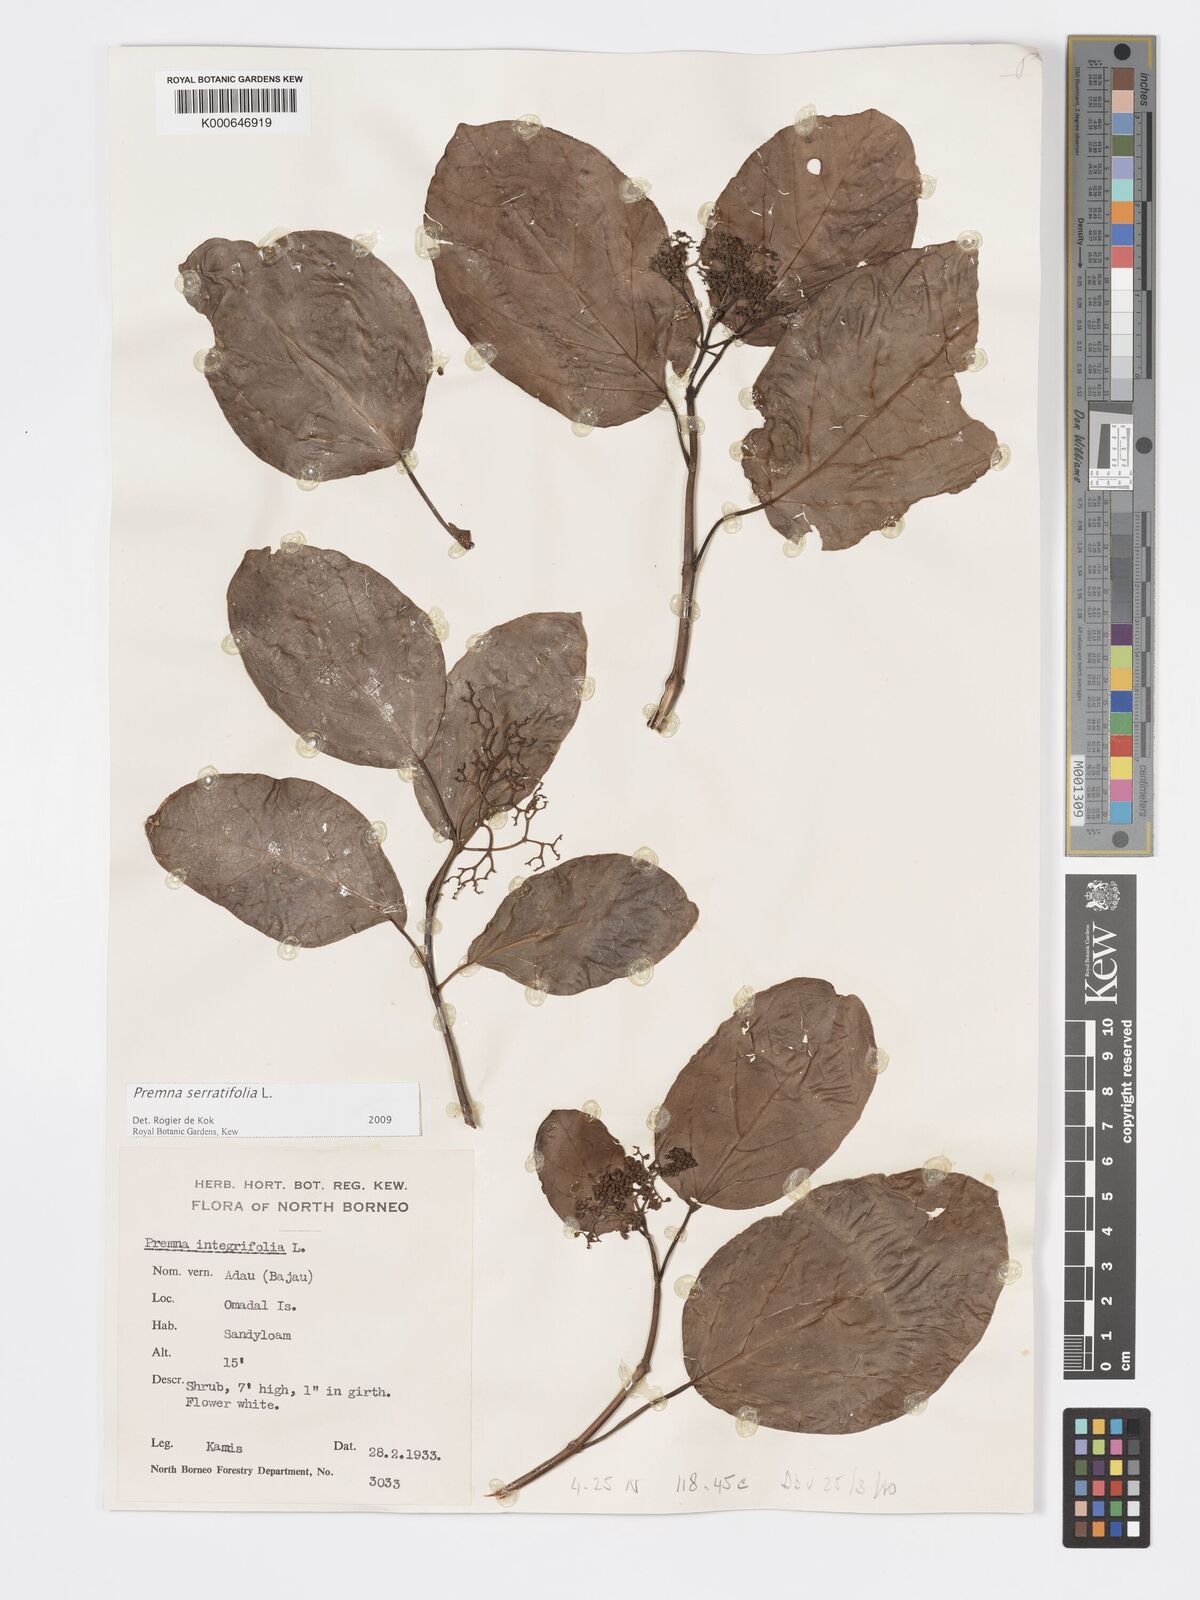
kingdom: Plantae
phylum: Tracheophyta
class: Magnoliopsida
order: Lamiales
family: Lamiaceae
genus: Premna
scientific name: Premna serratifolia
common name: Bastard guelder
